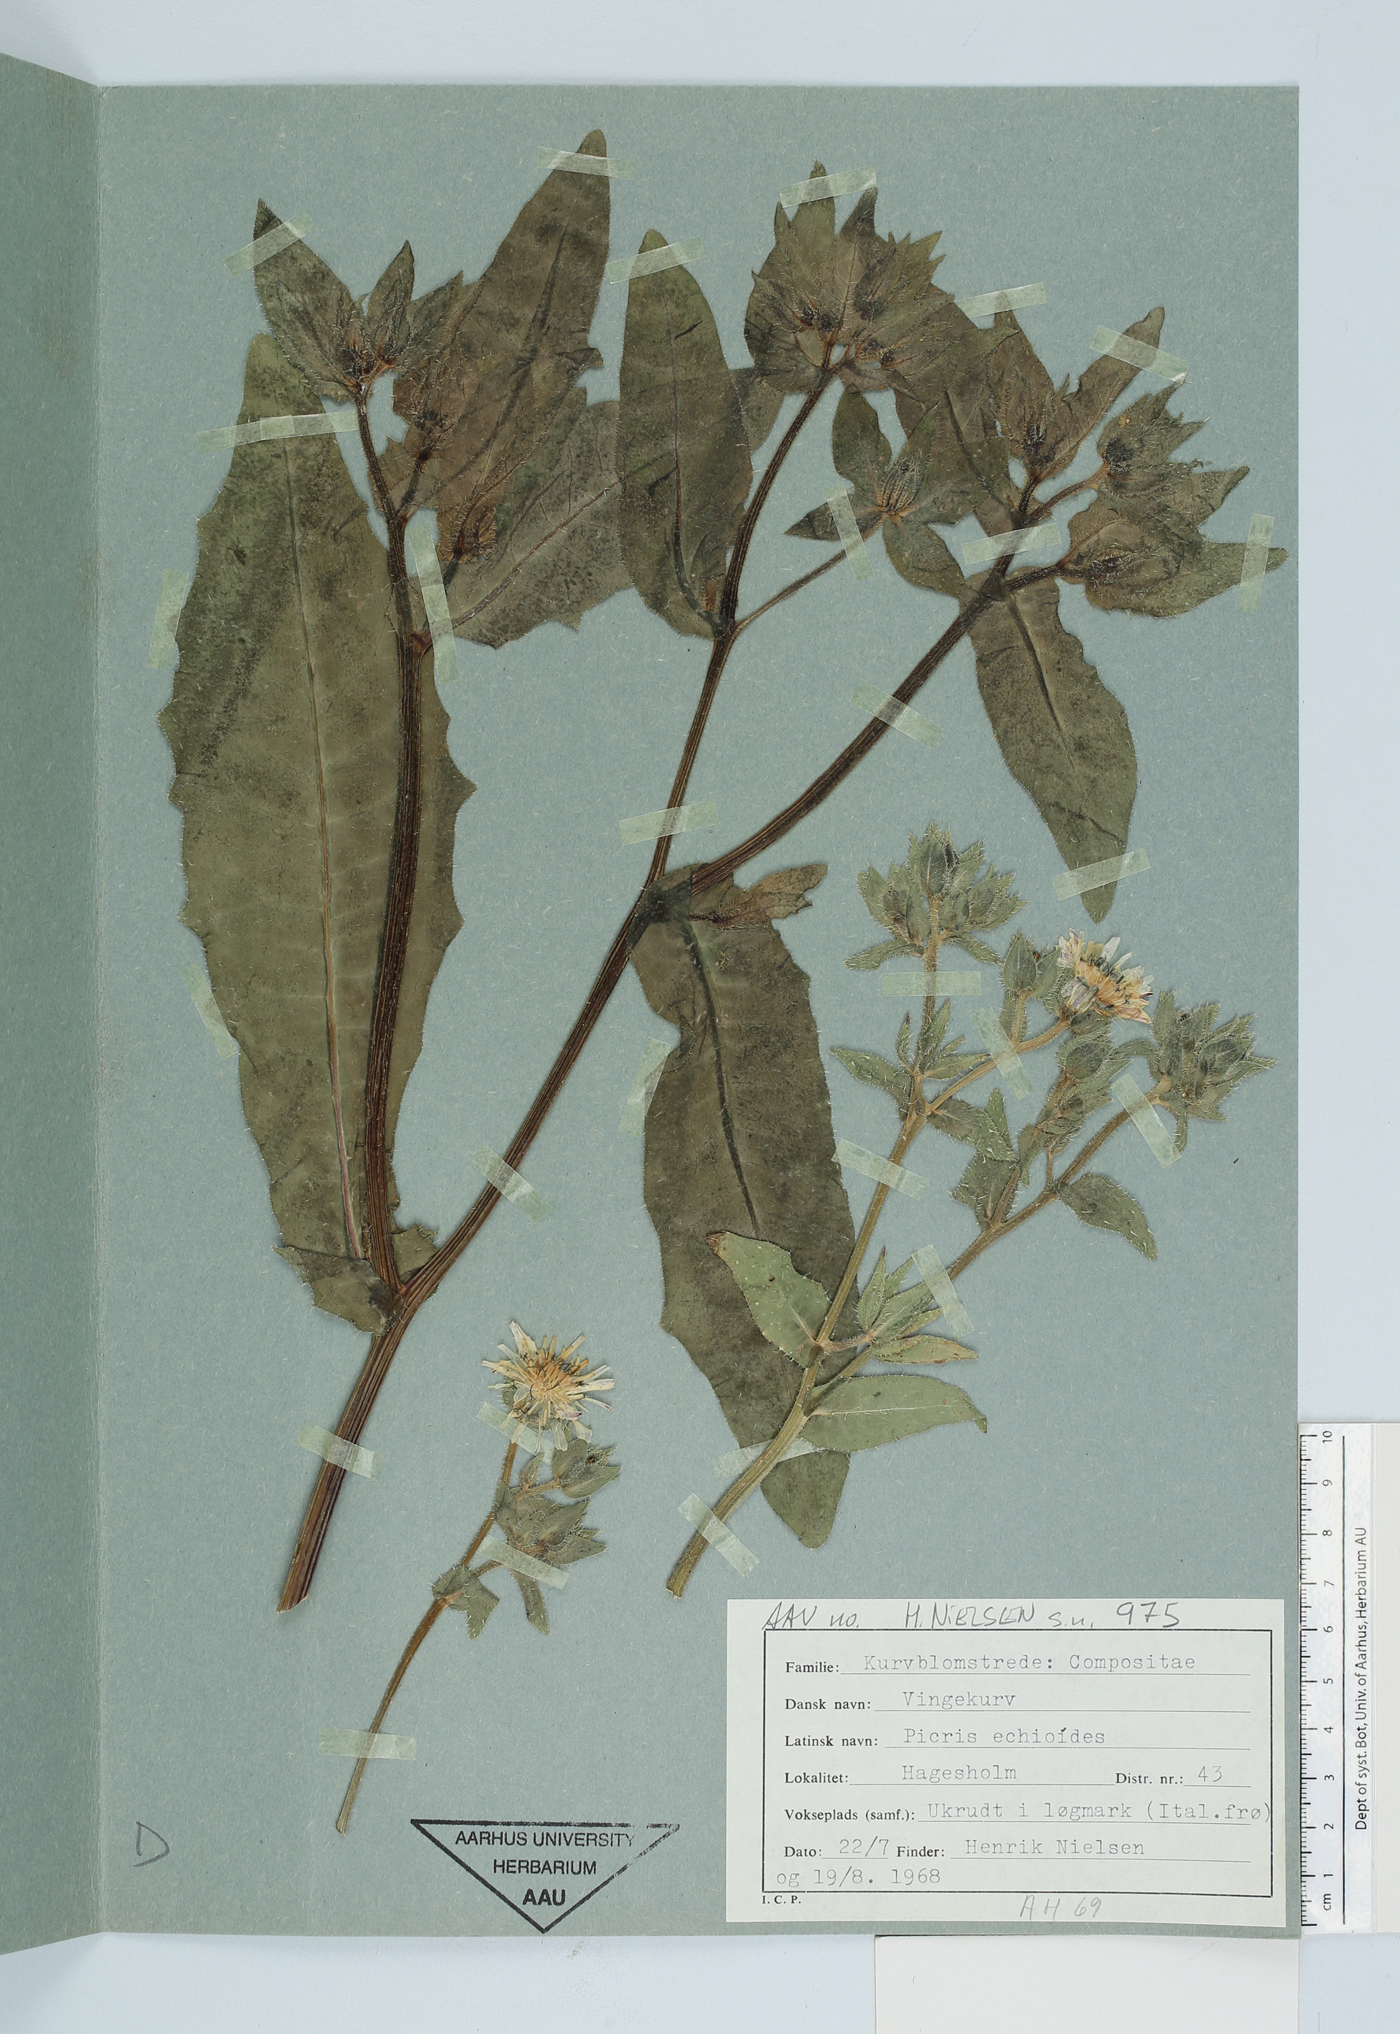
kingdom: Plantae
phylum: Tracheophyta
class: Magnoliopsida
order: Asterales
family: Asteraceae
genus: Helminthotheca
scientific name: Helminthotheca echioides
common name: Ox-tongue
